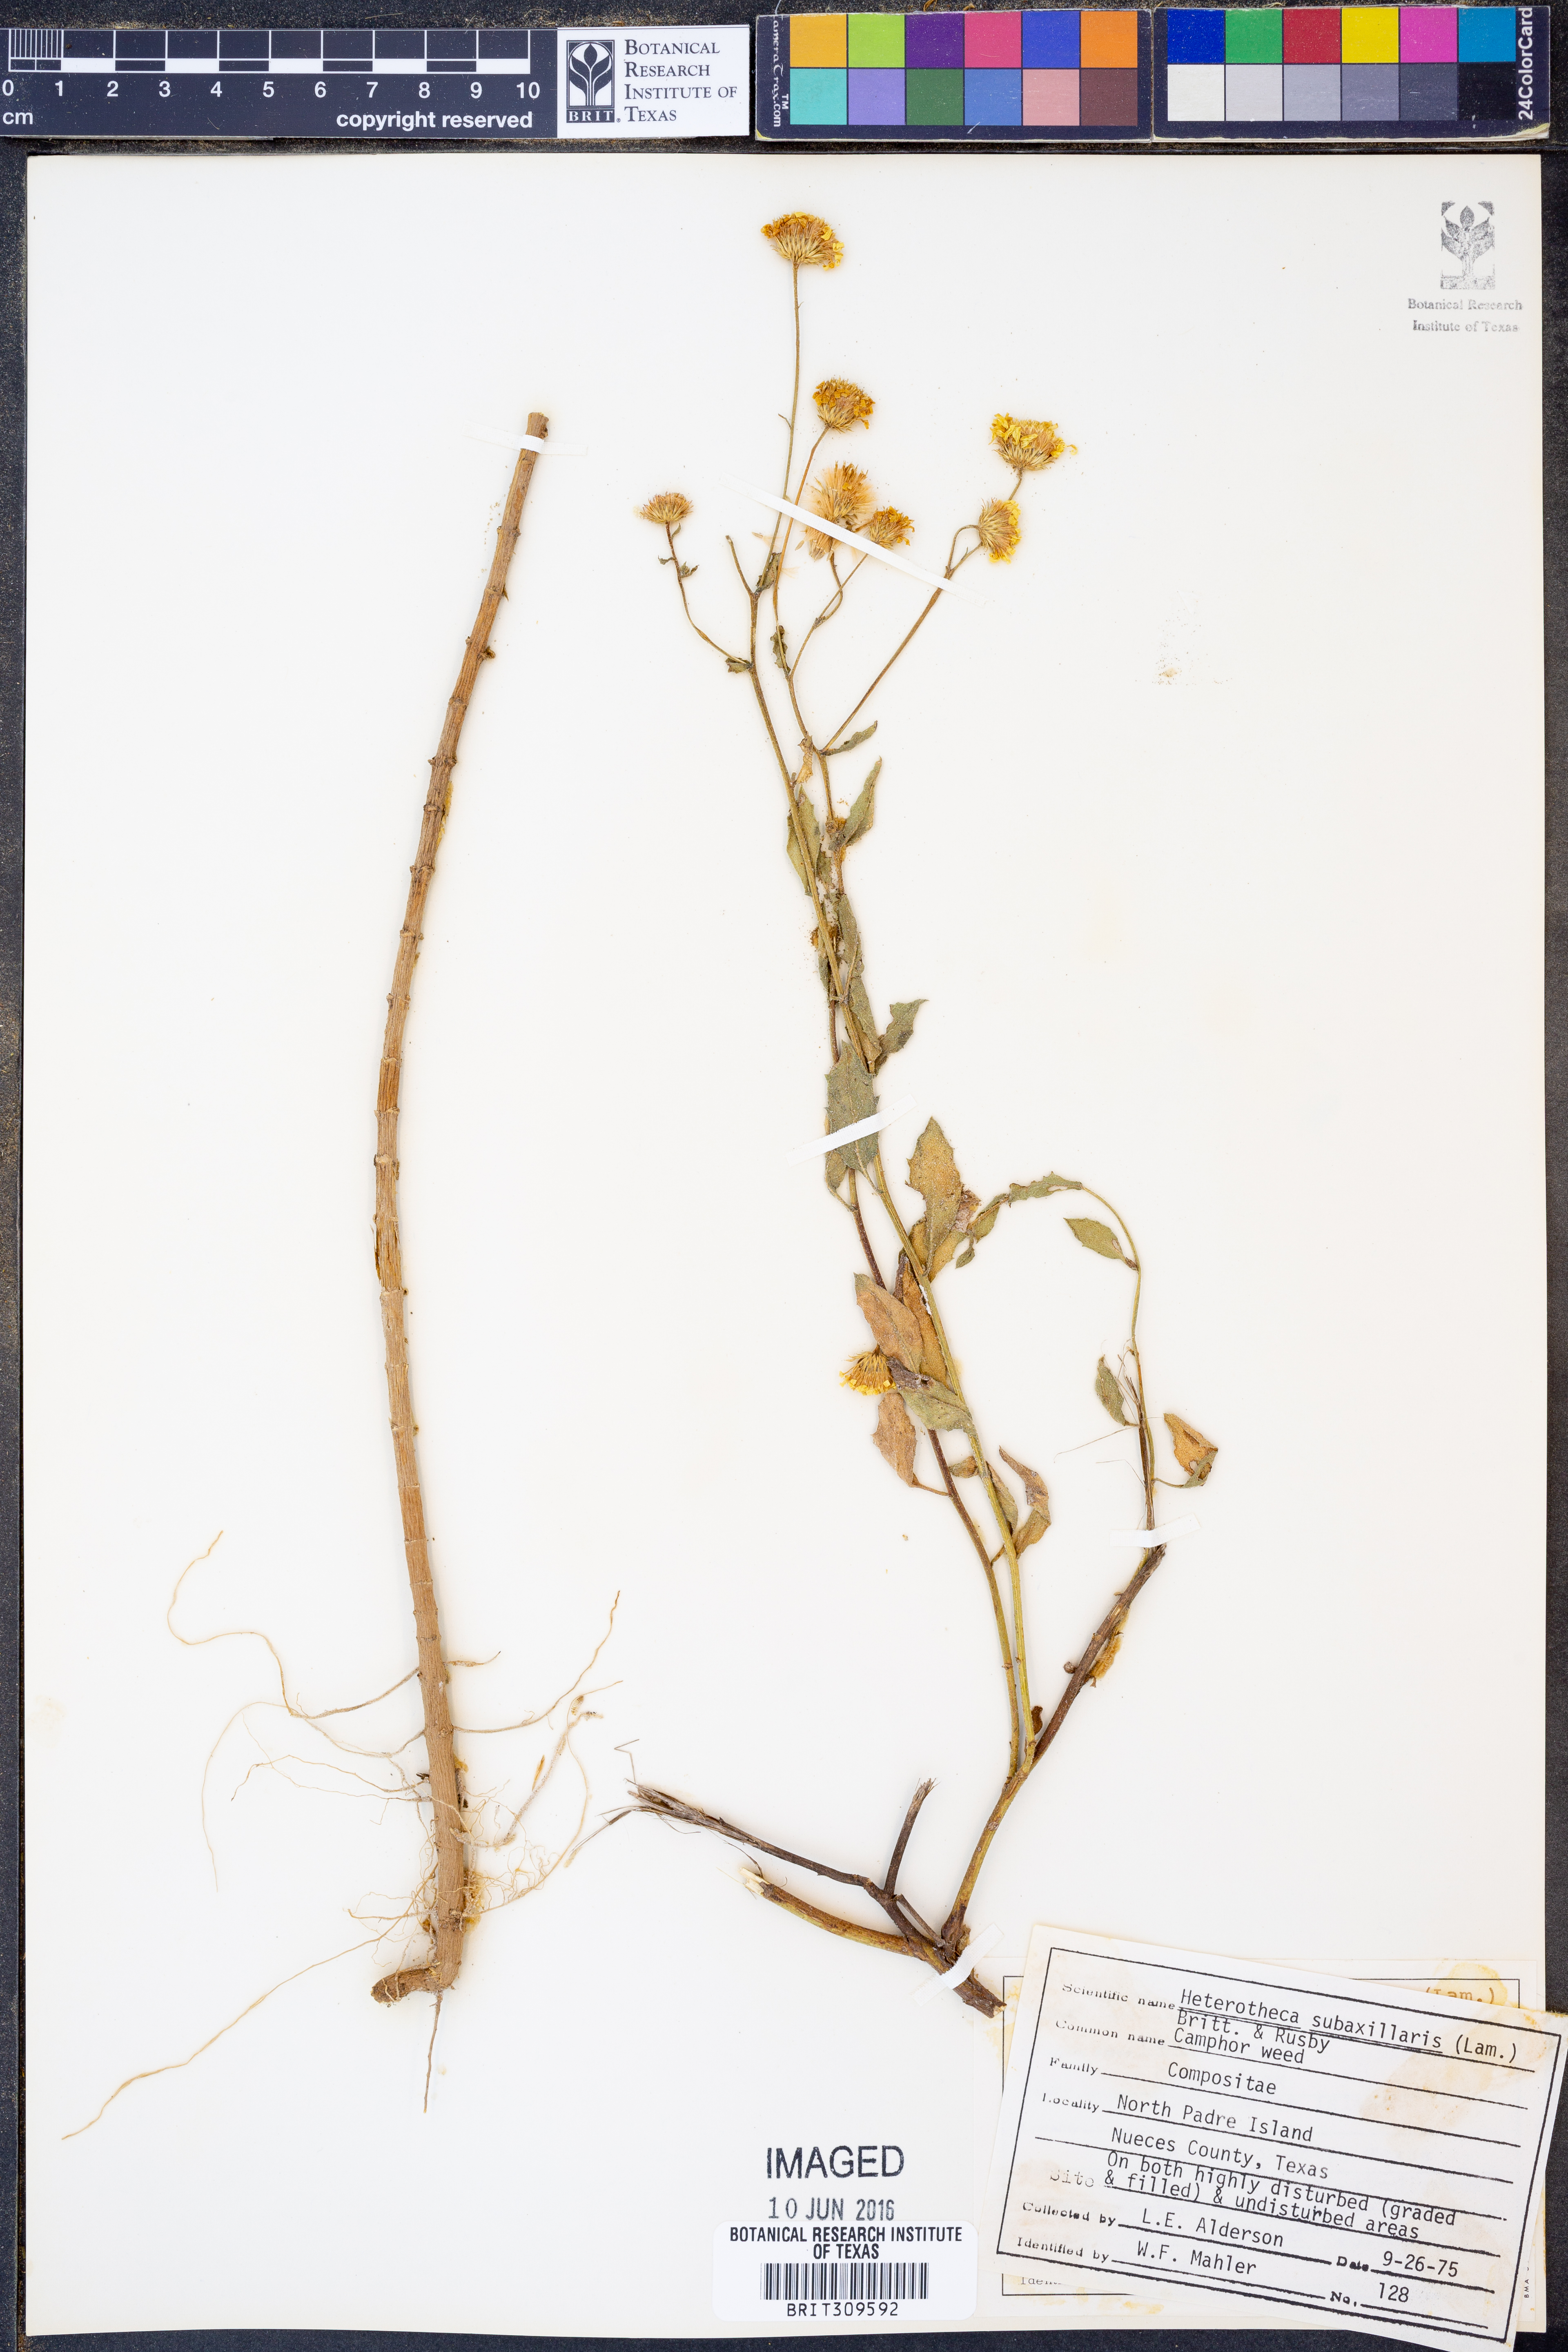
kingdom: Plantae
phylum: Tracheophyta
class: Magnoliopsida
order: Asterales
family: Asteraceae
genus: Heterotheca
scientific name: Heterotheca subaxillaris
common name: Camphorweed
